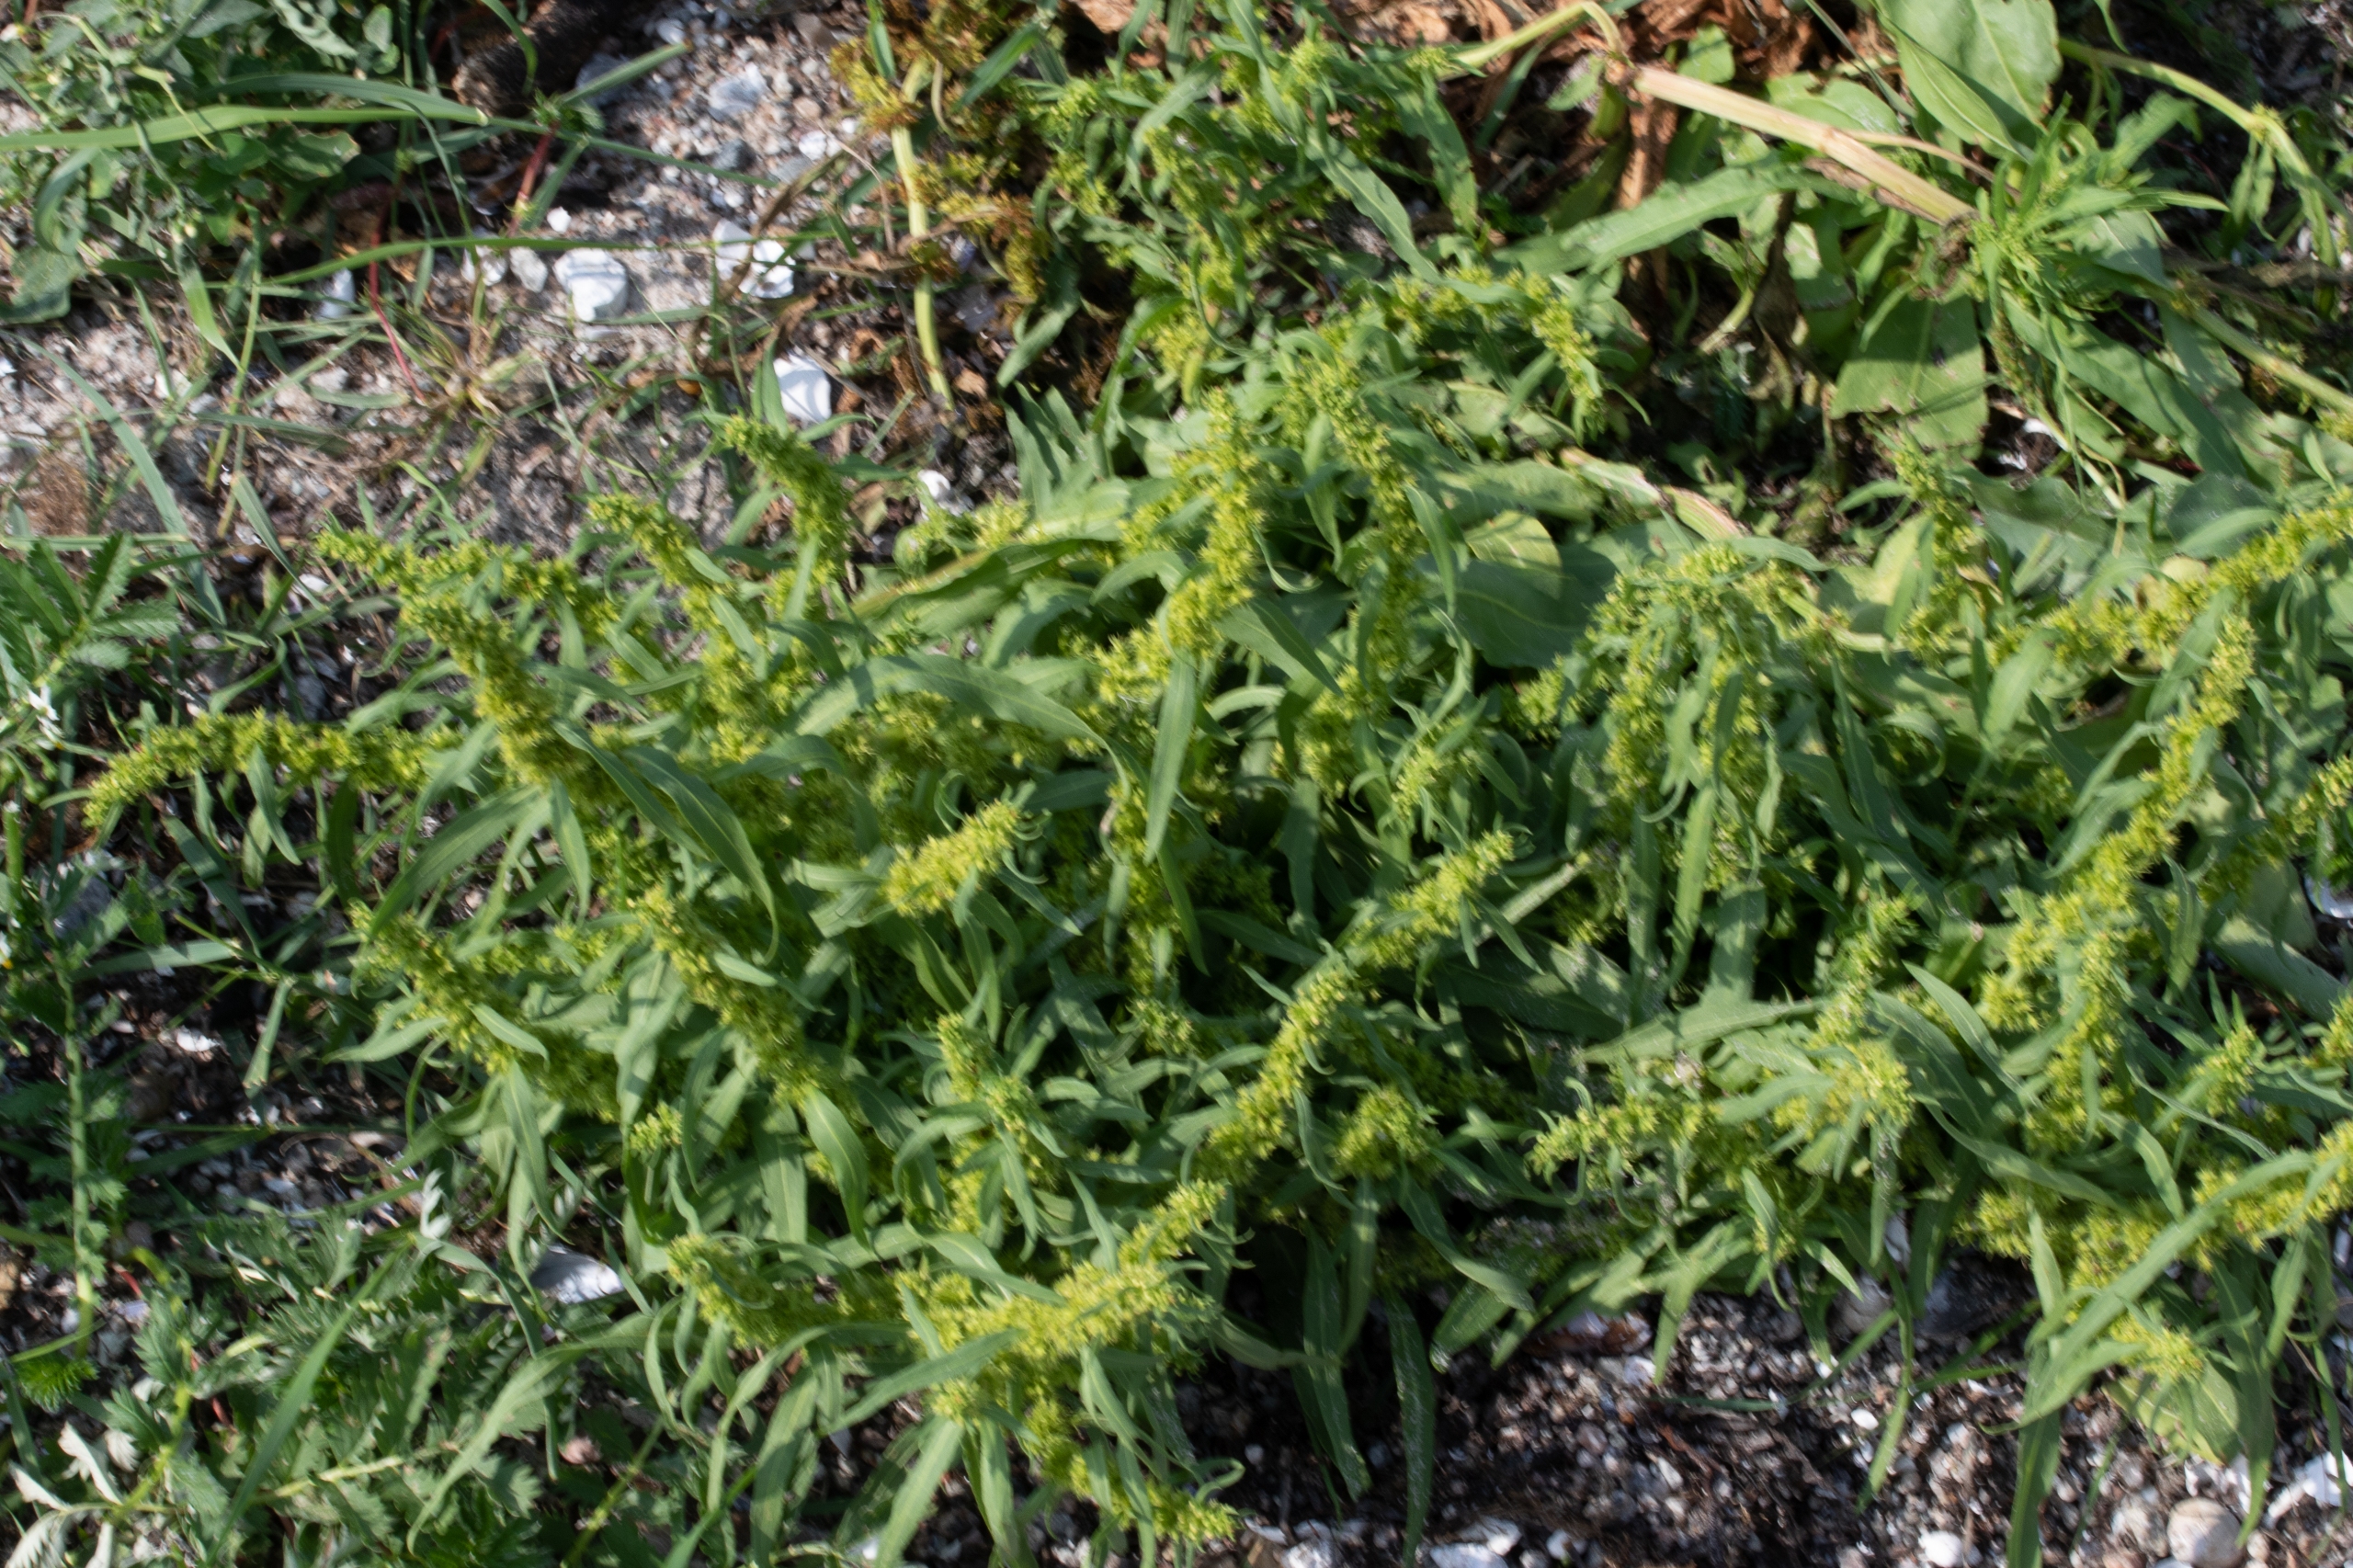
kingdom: Plantae
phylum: Tracheophyta
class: Magnoliopsida
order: Caryophyllales
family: Amaranthaceae
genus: Atriplex
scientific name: Atriplex littoralis
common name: Strand-mælde
